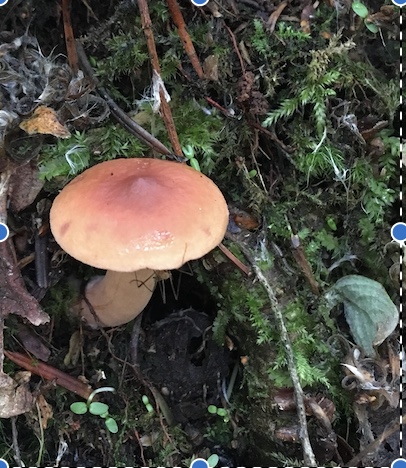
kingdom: Fungi
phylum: Basidiomycota
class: Agaricomycetes
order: Russulales
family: Russulaceae
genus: Lactarius
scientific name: Lactarius tabidus
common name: rynket mælkehat
